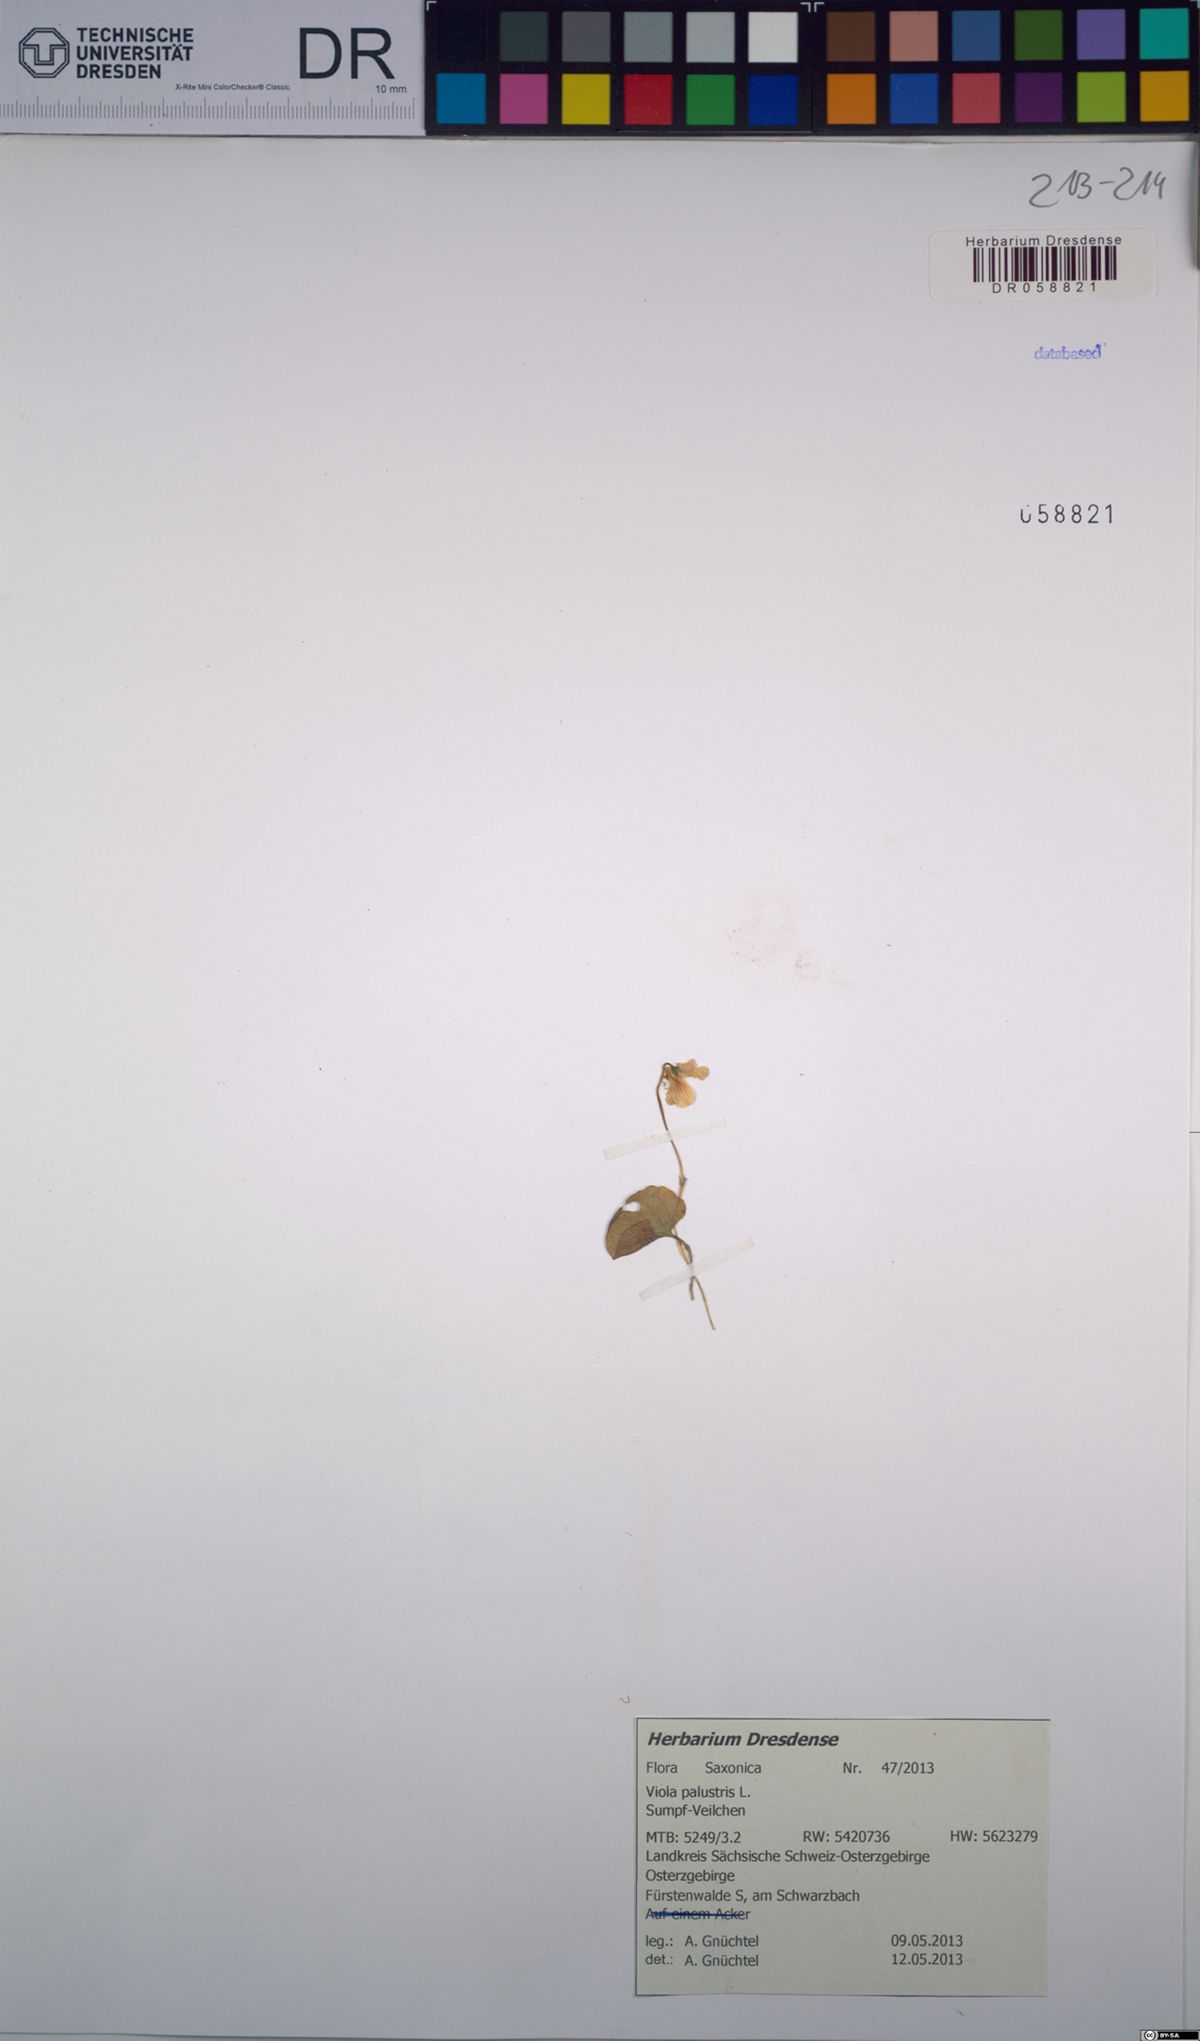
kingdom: Plantae
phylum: Tracheophyta
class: Magnoliopsida
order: Malpighiales
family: Violaceae
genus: Viola
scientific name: Viola palustris
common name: Marsh violet
